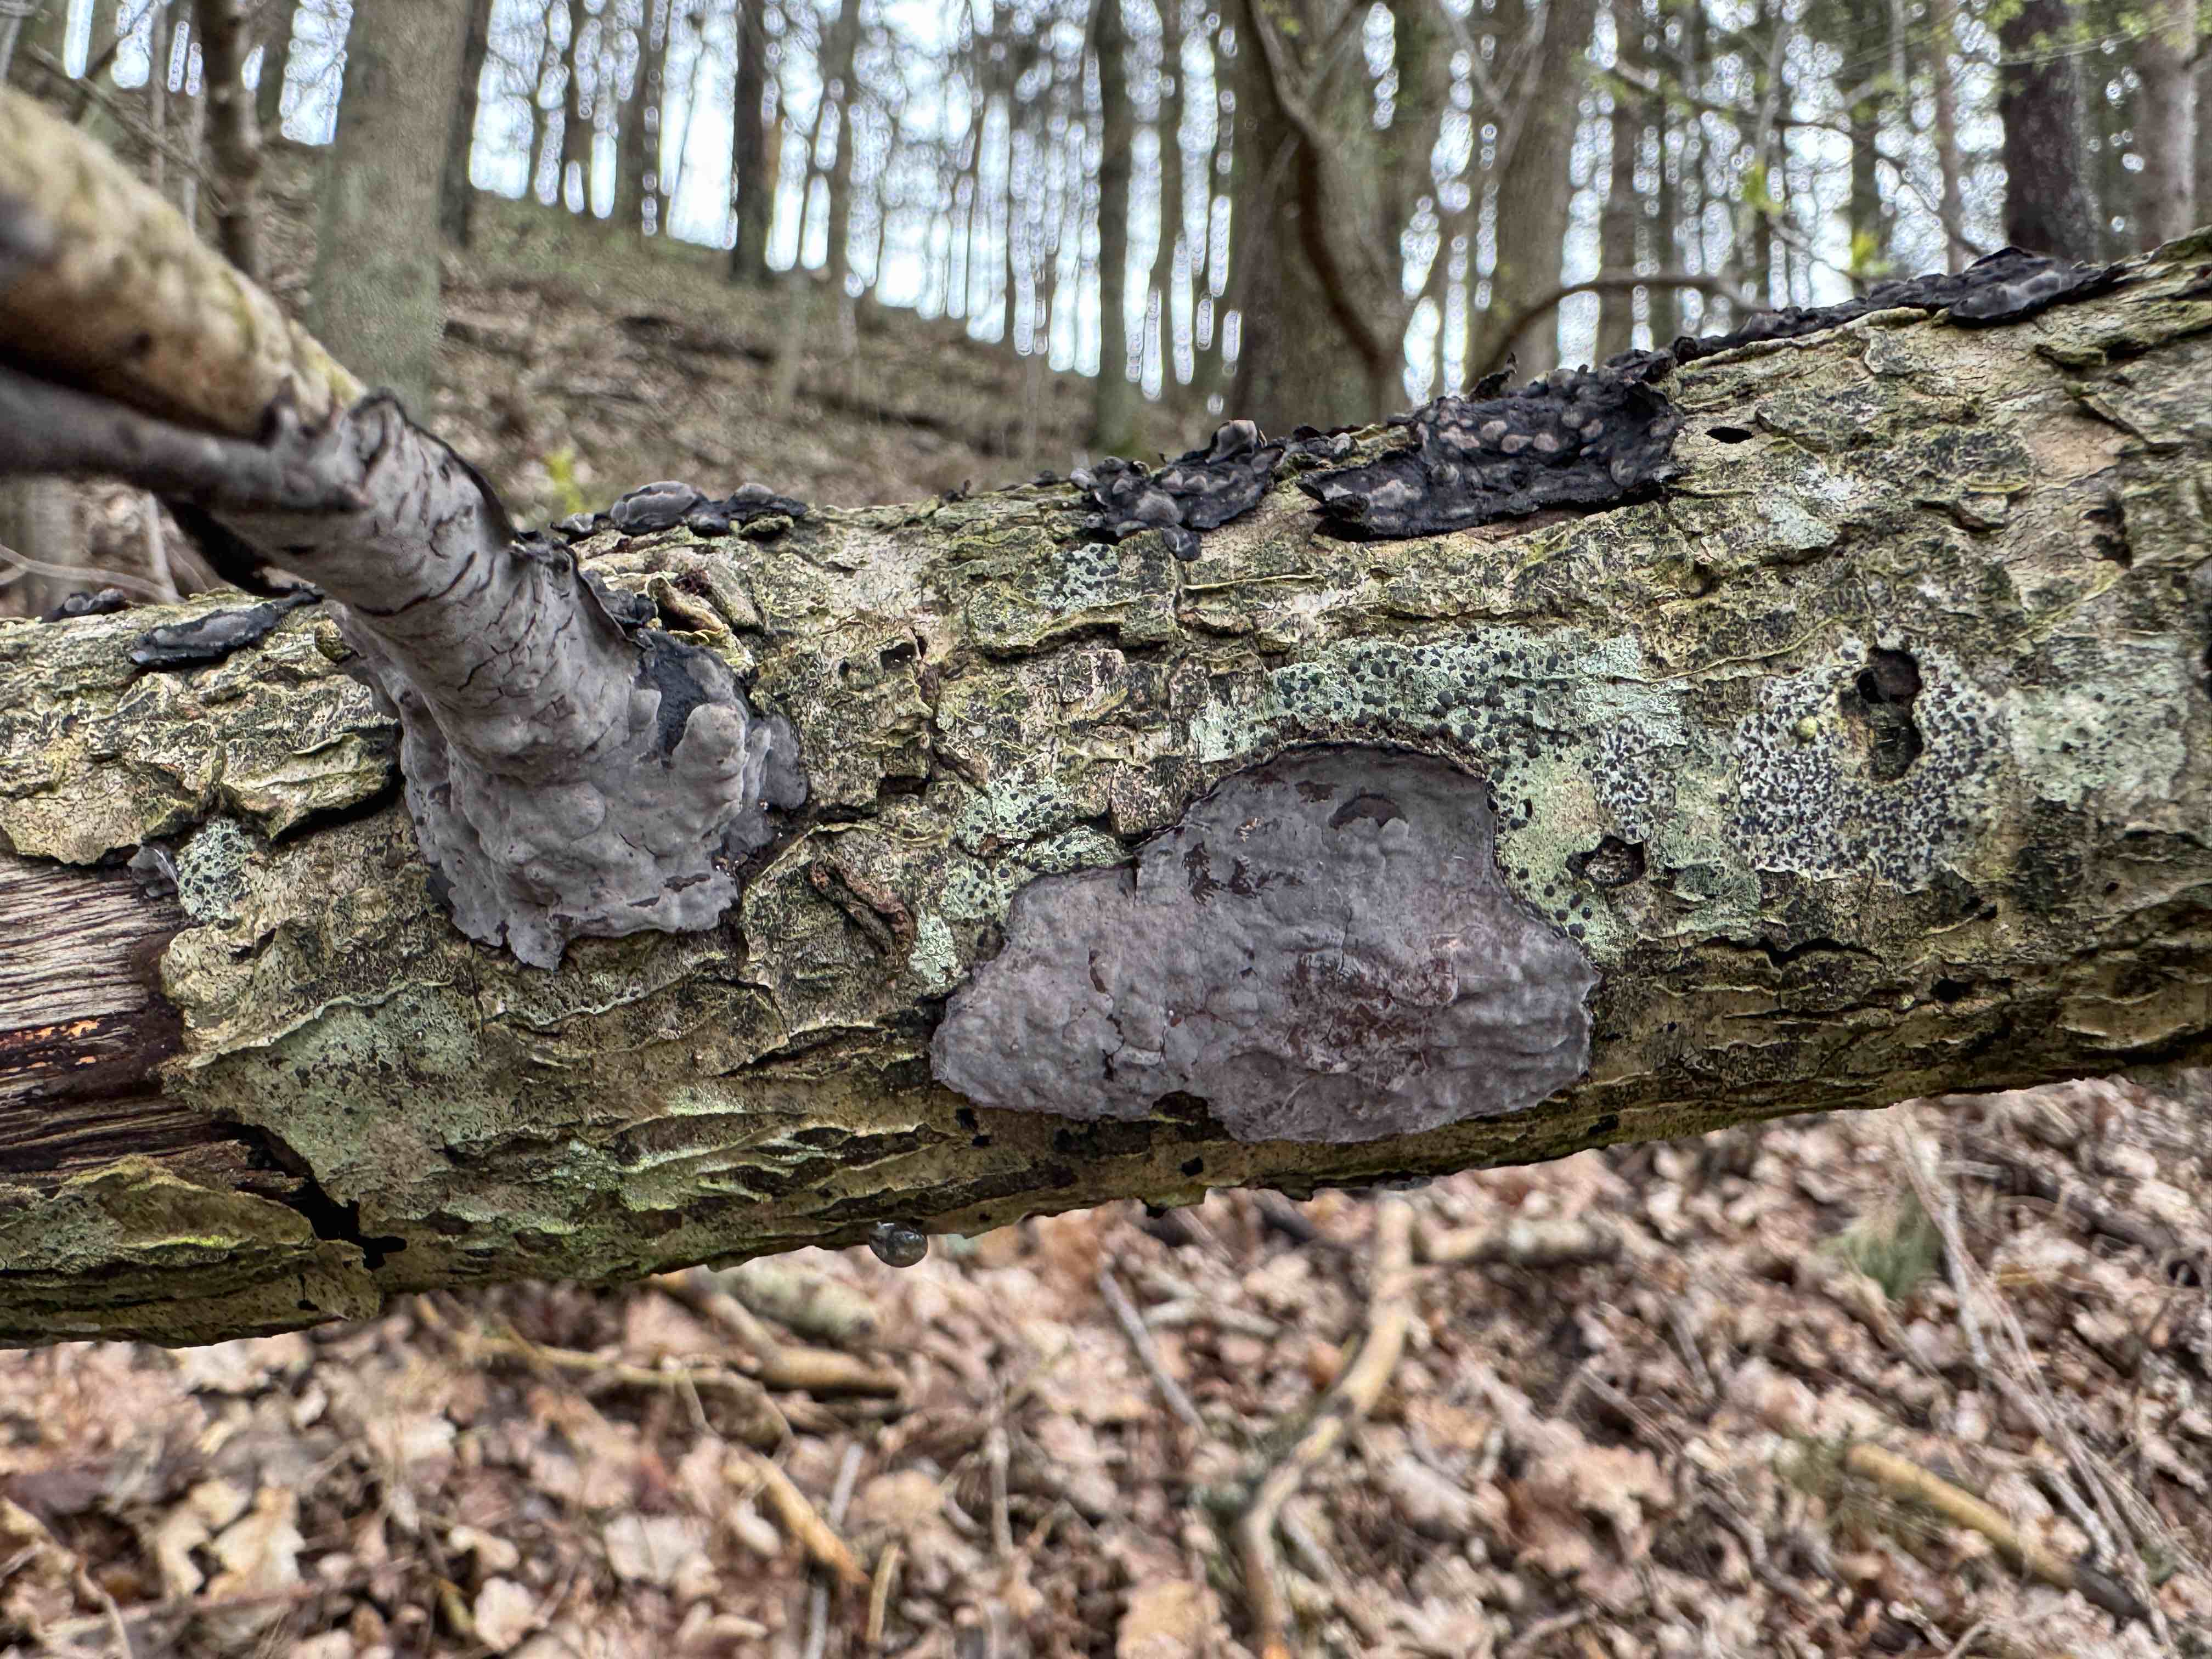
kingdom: Fungi
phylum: Basidiomycota
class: Agaricomycetes
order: Russulales
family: Peniophoraceae
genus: Peniophora
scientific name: Peniophora quercina
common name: ege-voksskind
